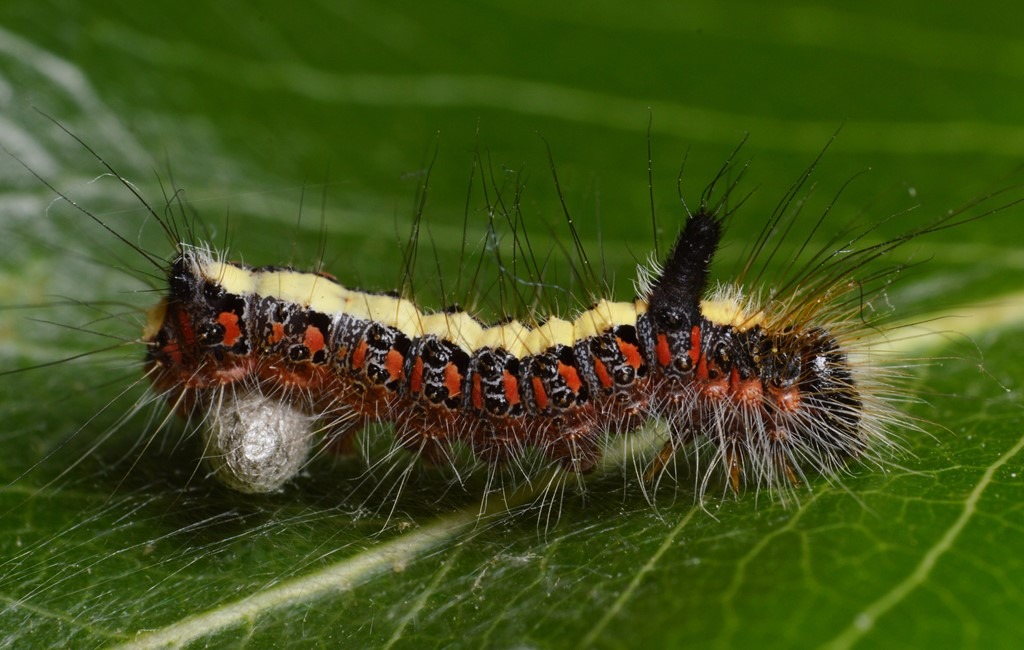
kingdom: Animalia
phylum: Arthropoda
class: Insecta
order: Hymenoptera
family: Braconidae
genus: Microplitis
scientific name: Microplitis sordipes
